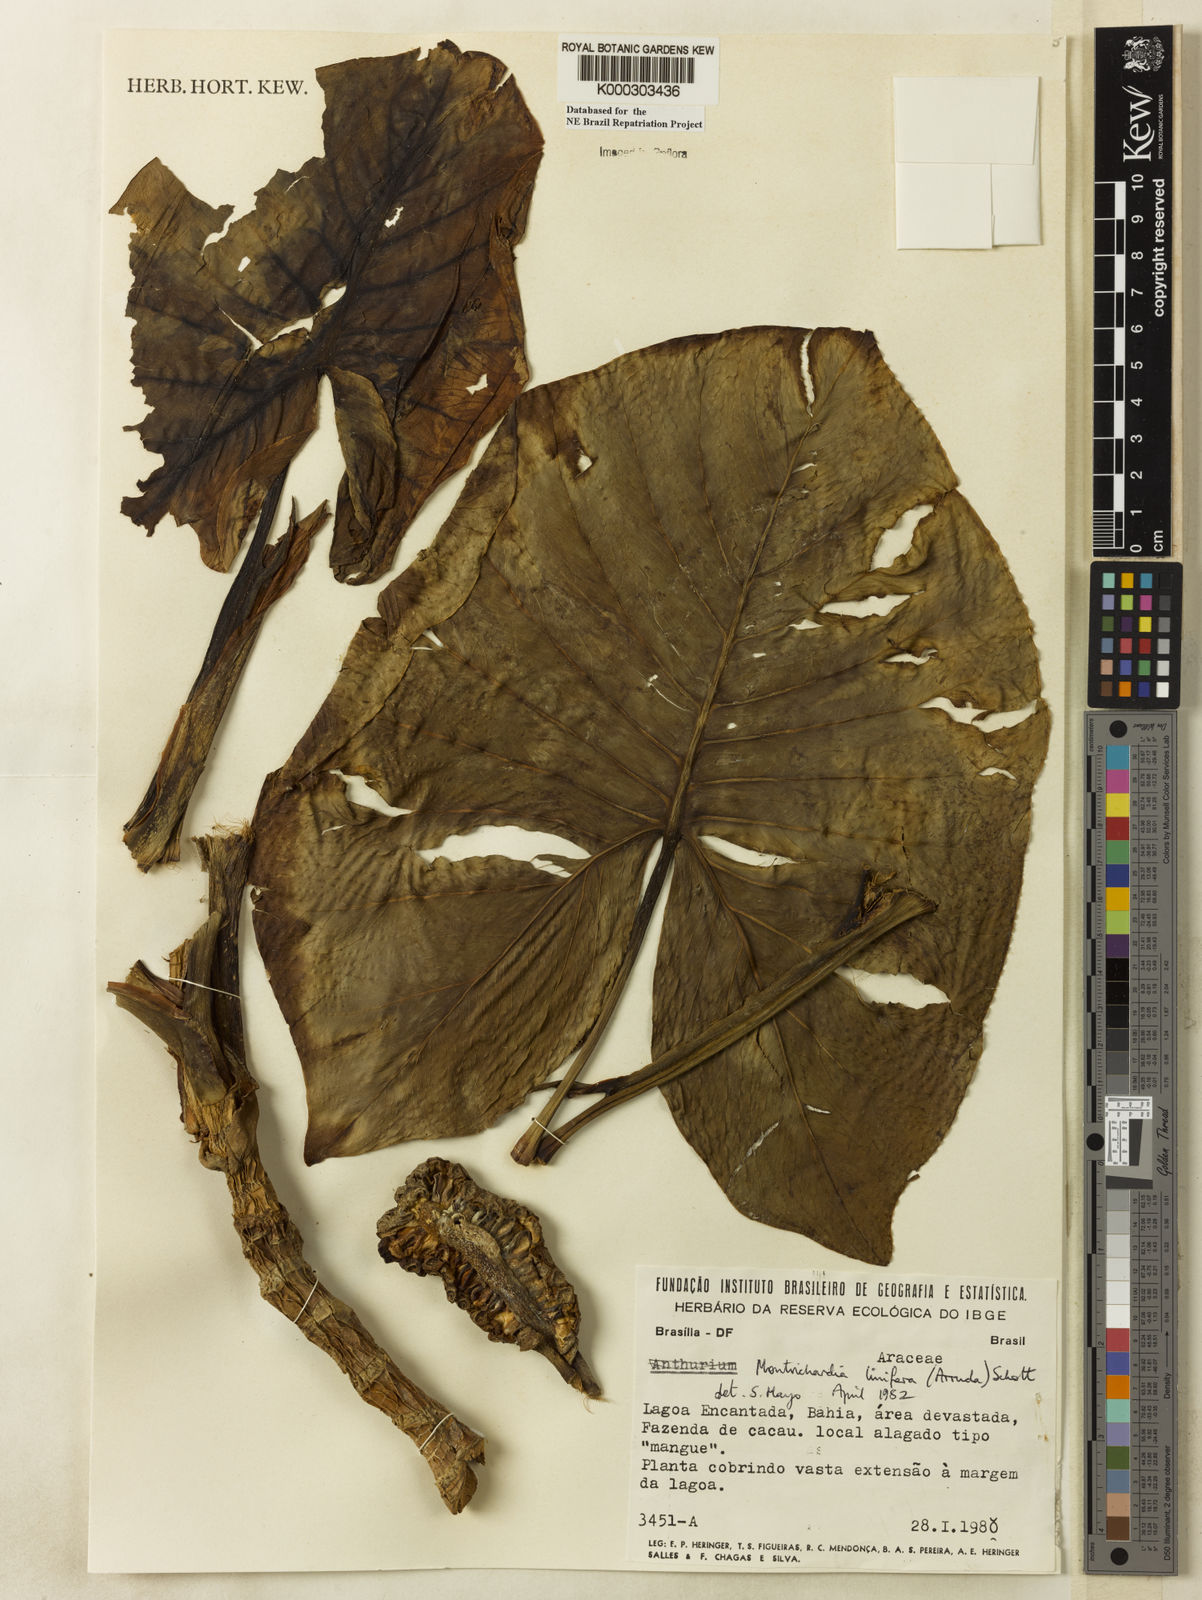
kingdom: Plantae
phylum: Tracheophyta
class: Liliopsida
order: Alismatales
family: Araceae
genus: Montrichardia
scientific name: Montrichardia linifera
